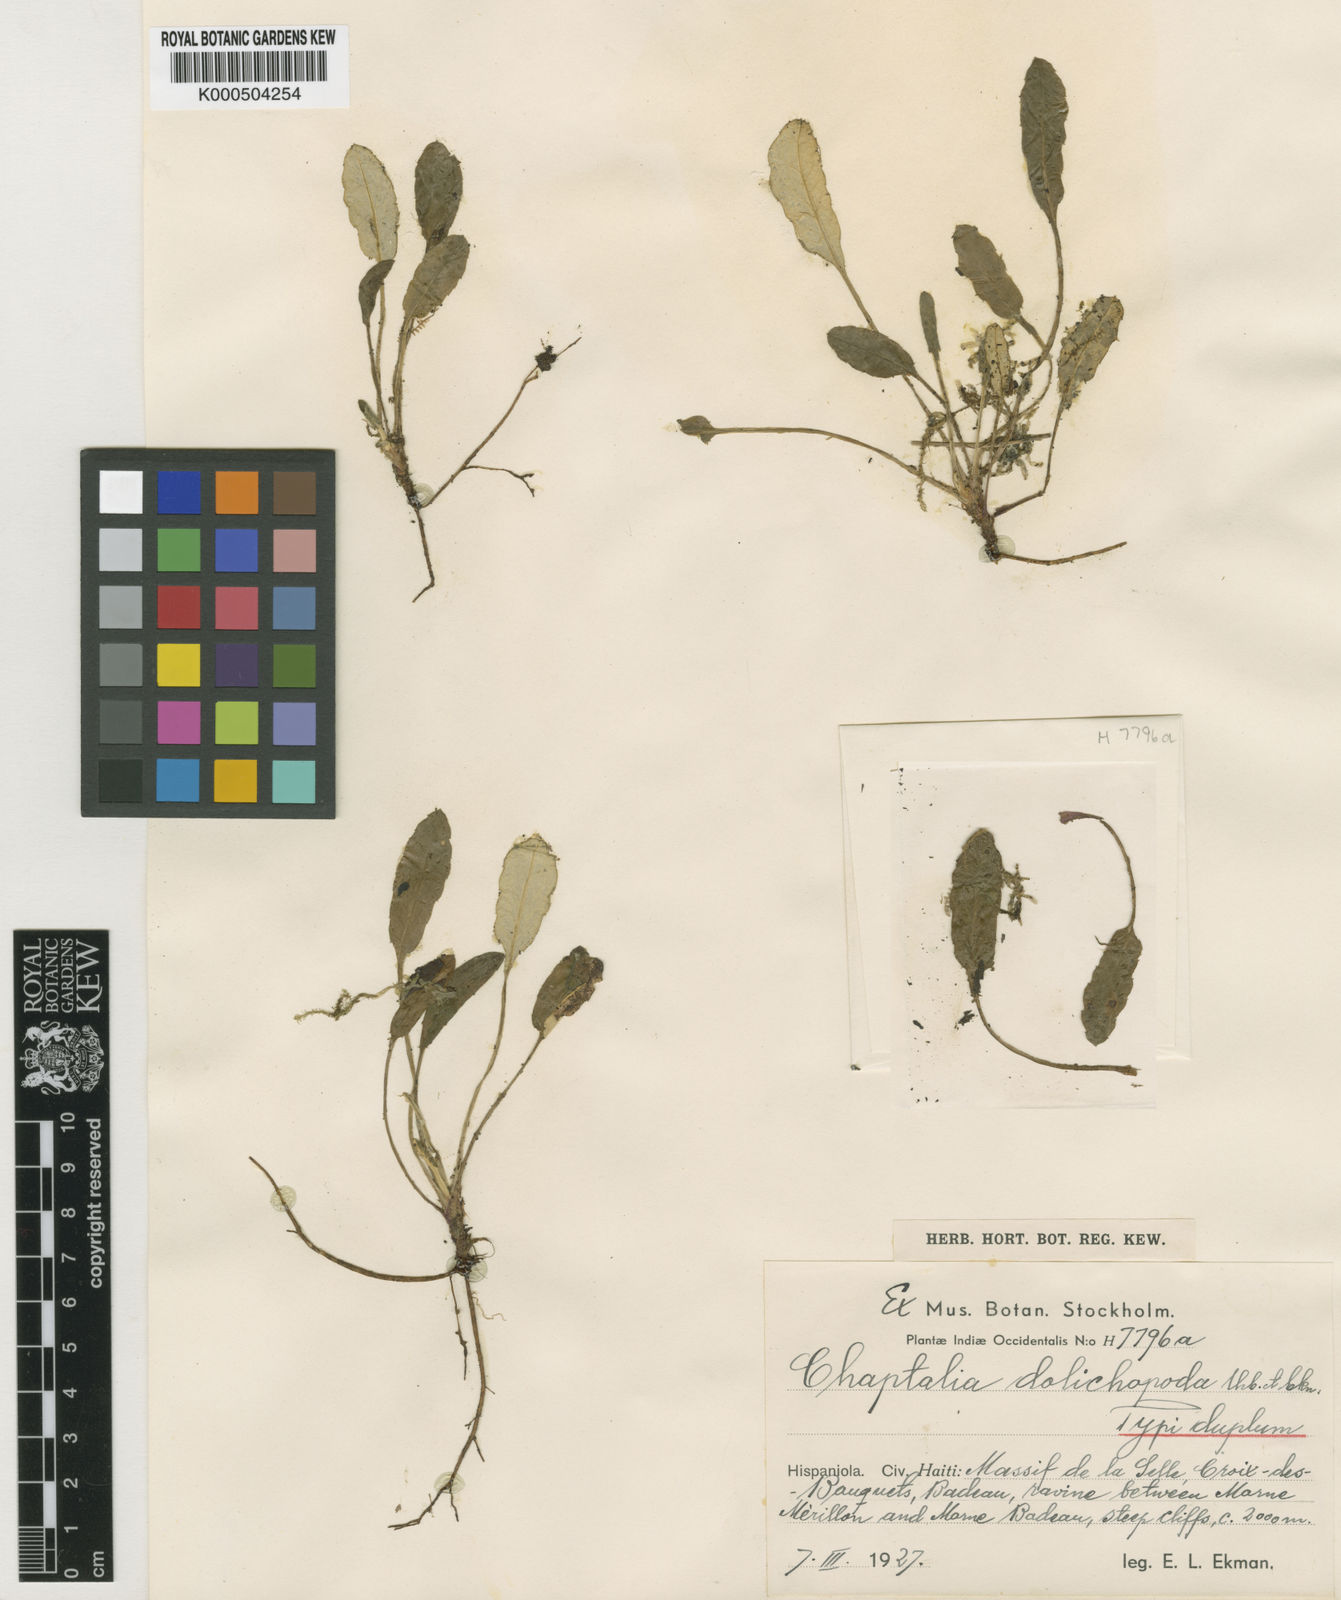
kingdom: Plantae
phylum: Tracheophyta
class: Magnoliopsida
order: Asterales
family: Asteraceae
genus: Chaptalia
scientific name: Chaptalia dolichopoda
